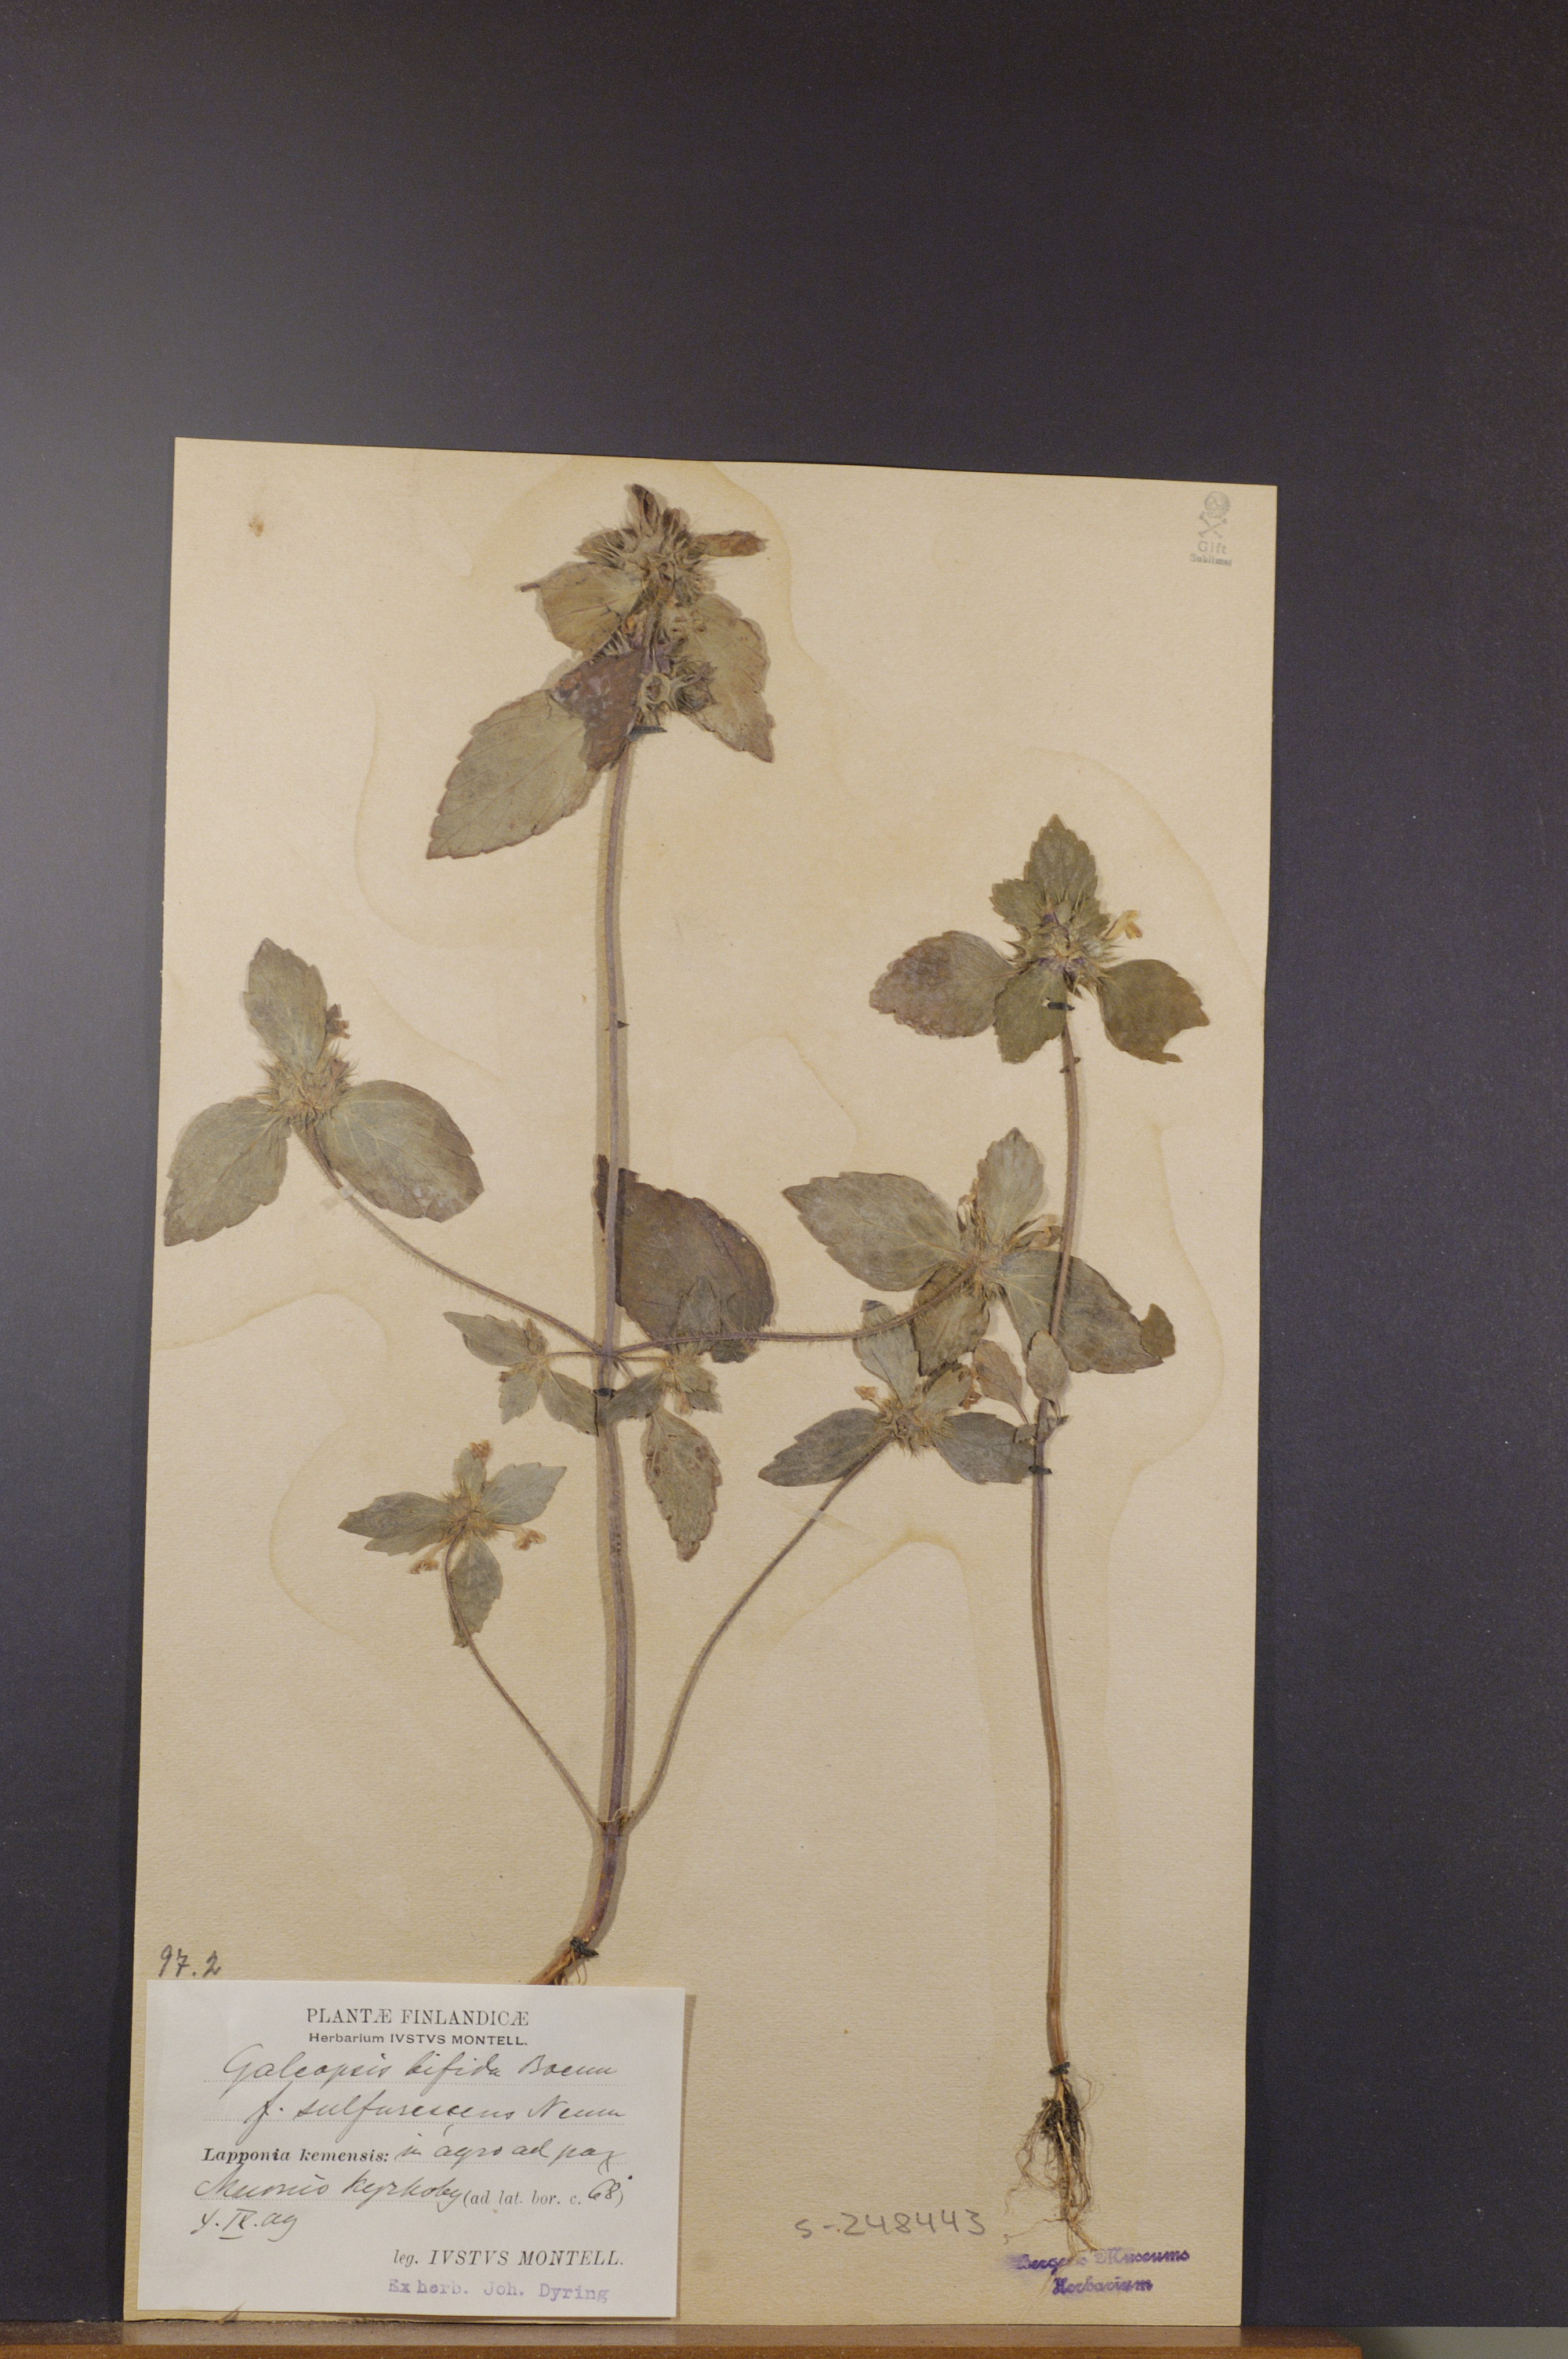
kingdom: Plantae
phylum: Tracheophyta
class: Magnoliopsida
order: Lamiales
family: Lamiaceae
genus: Galeopsis
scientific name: Galeopsis bifida
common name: Bifid hemp-nettle
